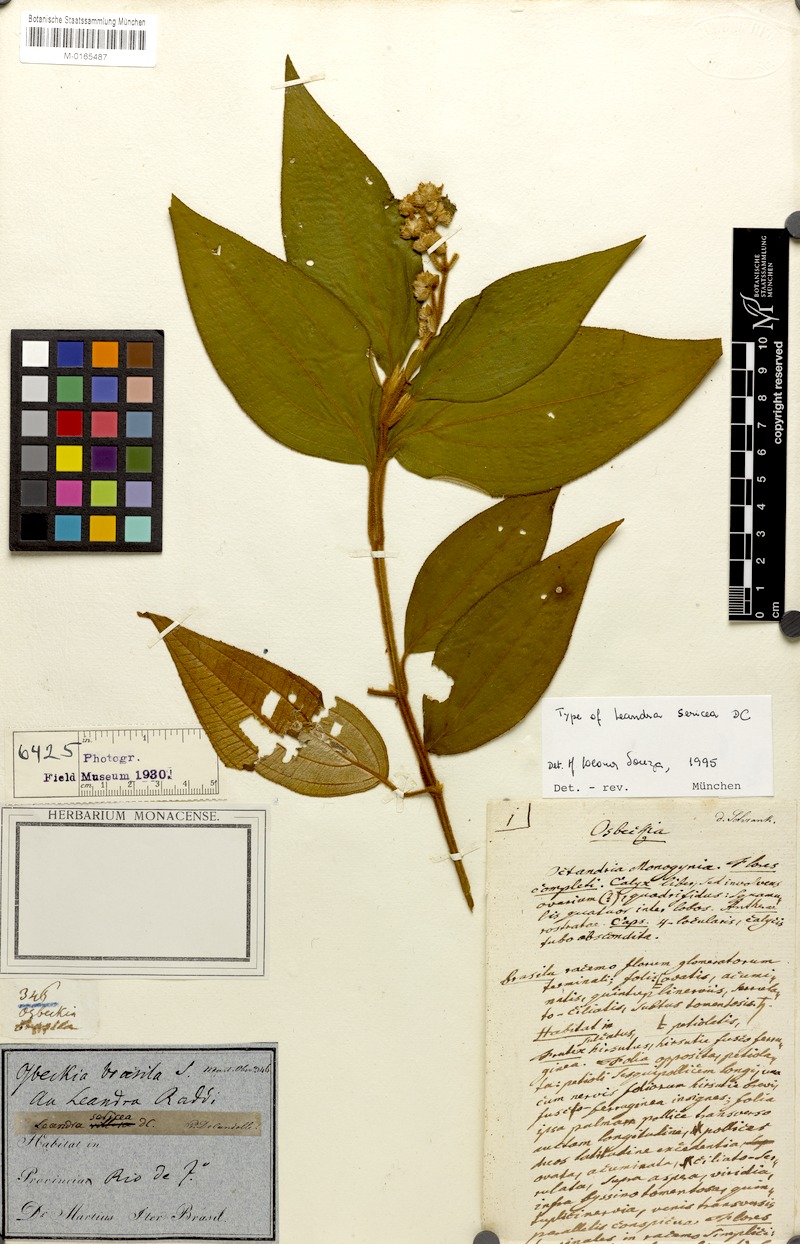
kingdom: Plantae
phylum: Tracheophyta
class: Magnoliopsida
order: Myrtales
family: Melastomataceae
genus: Miconia
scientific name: Miconia raddii
